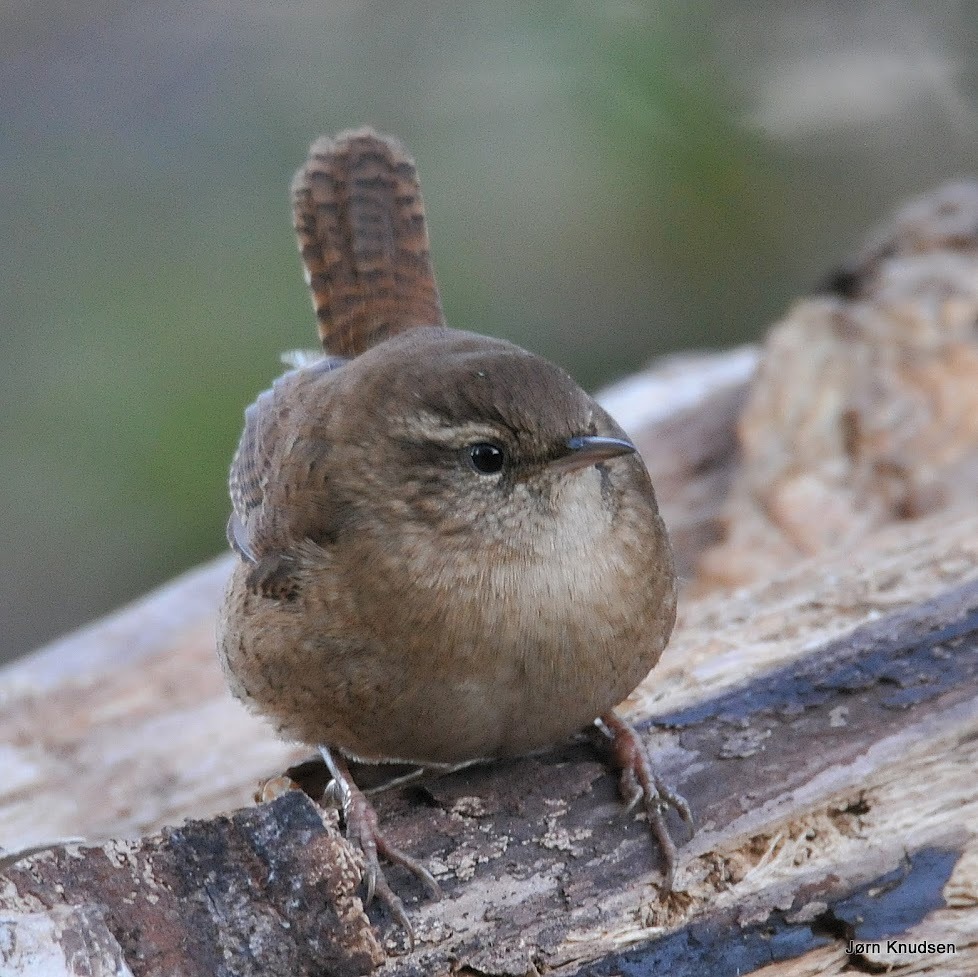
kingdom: Animalia
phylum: Chordata
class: Aves
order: Passeriformes
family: Troglodytidae
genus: Troglodytes
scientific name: Troglodytes troglodytes
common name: Gærdesmutte
